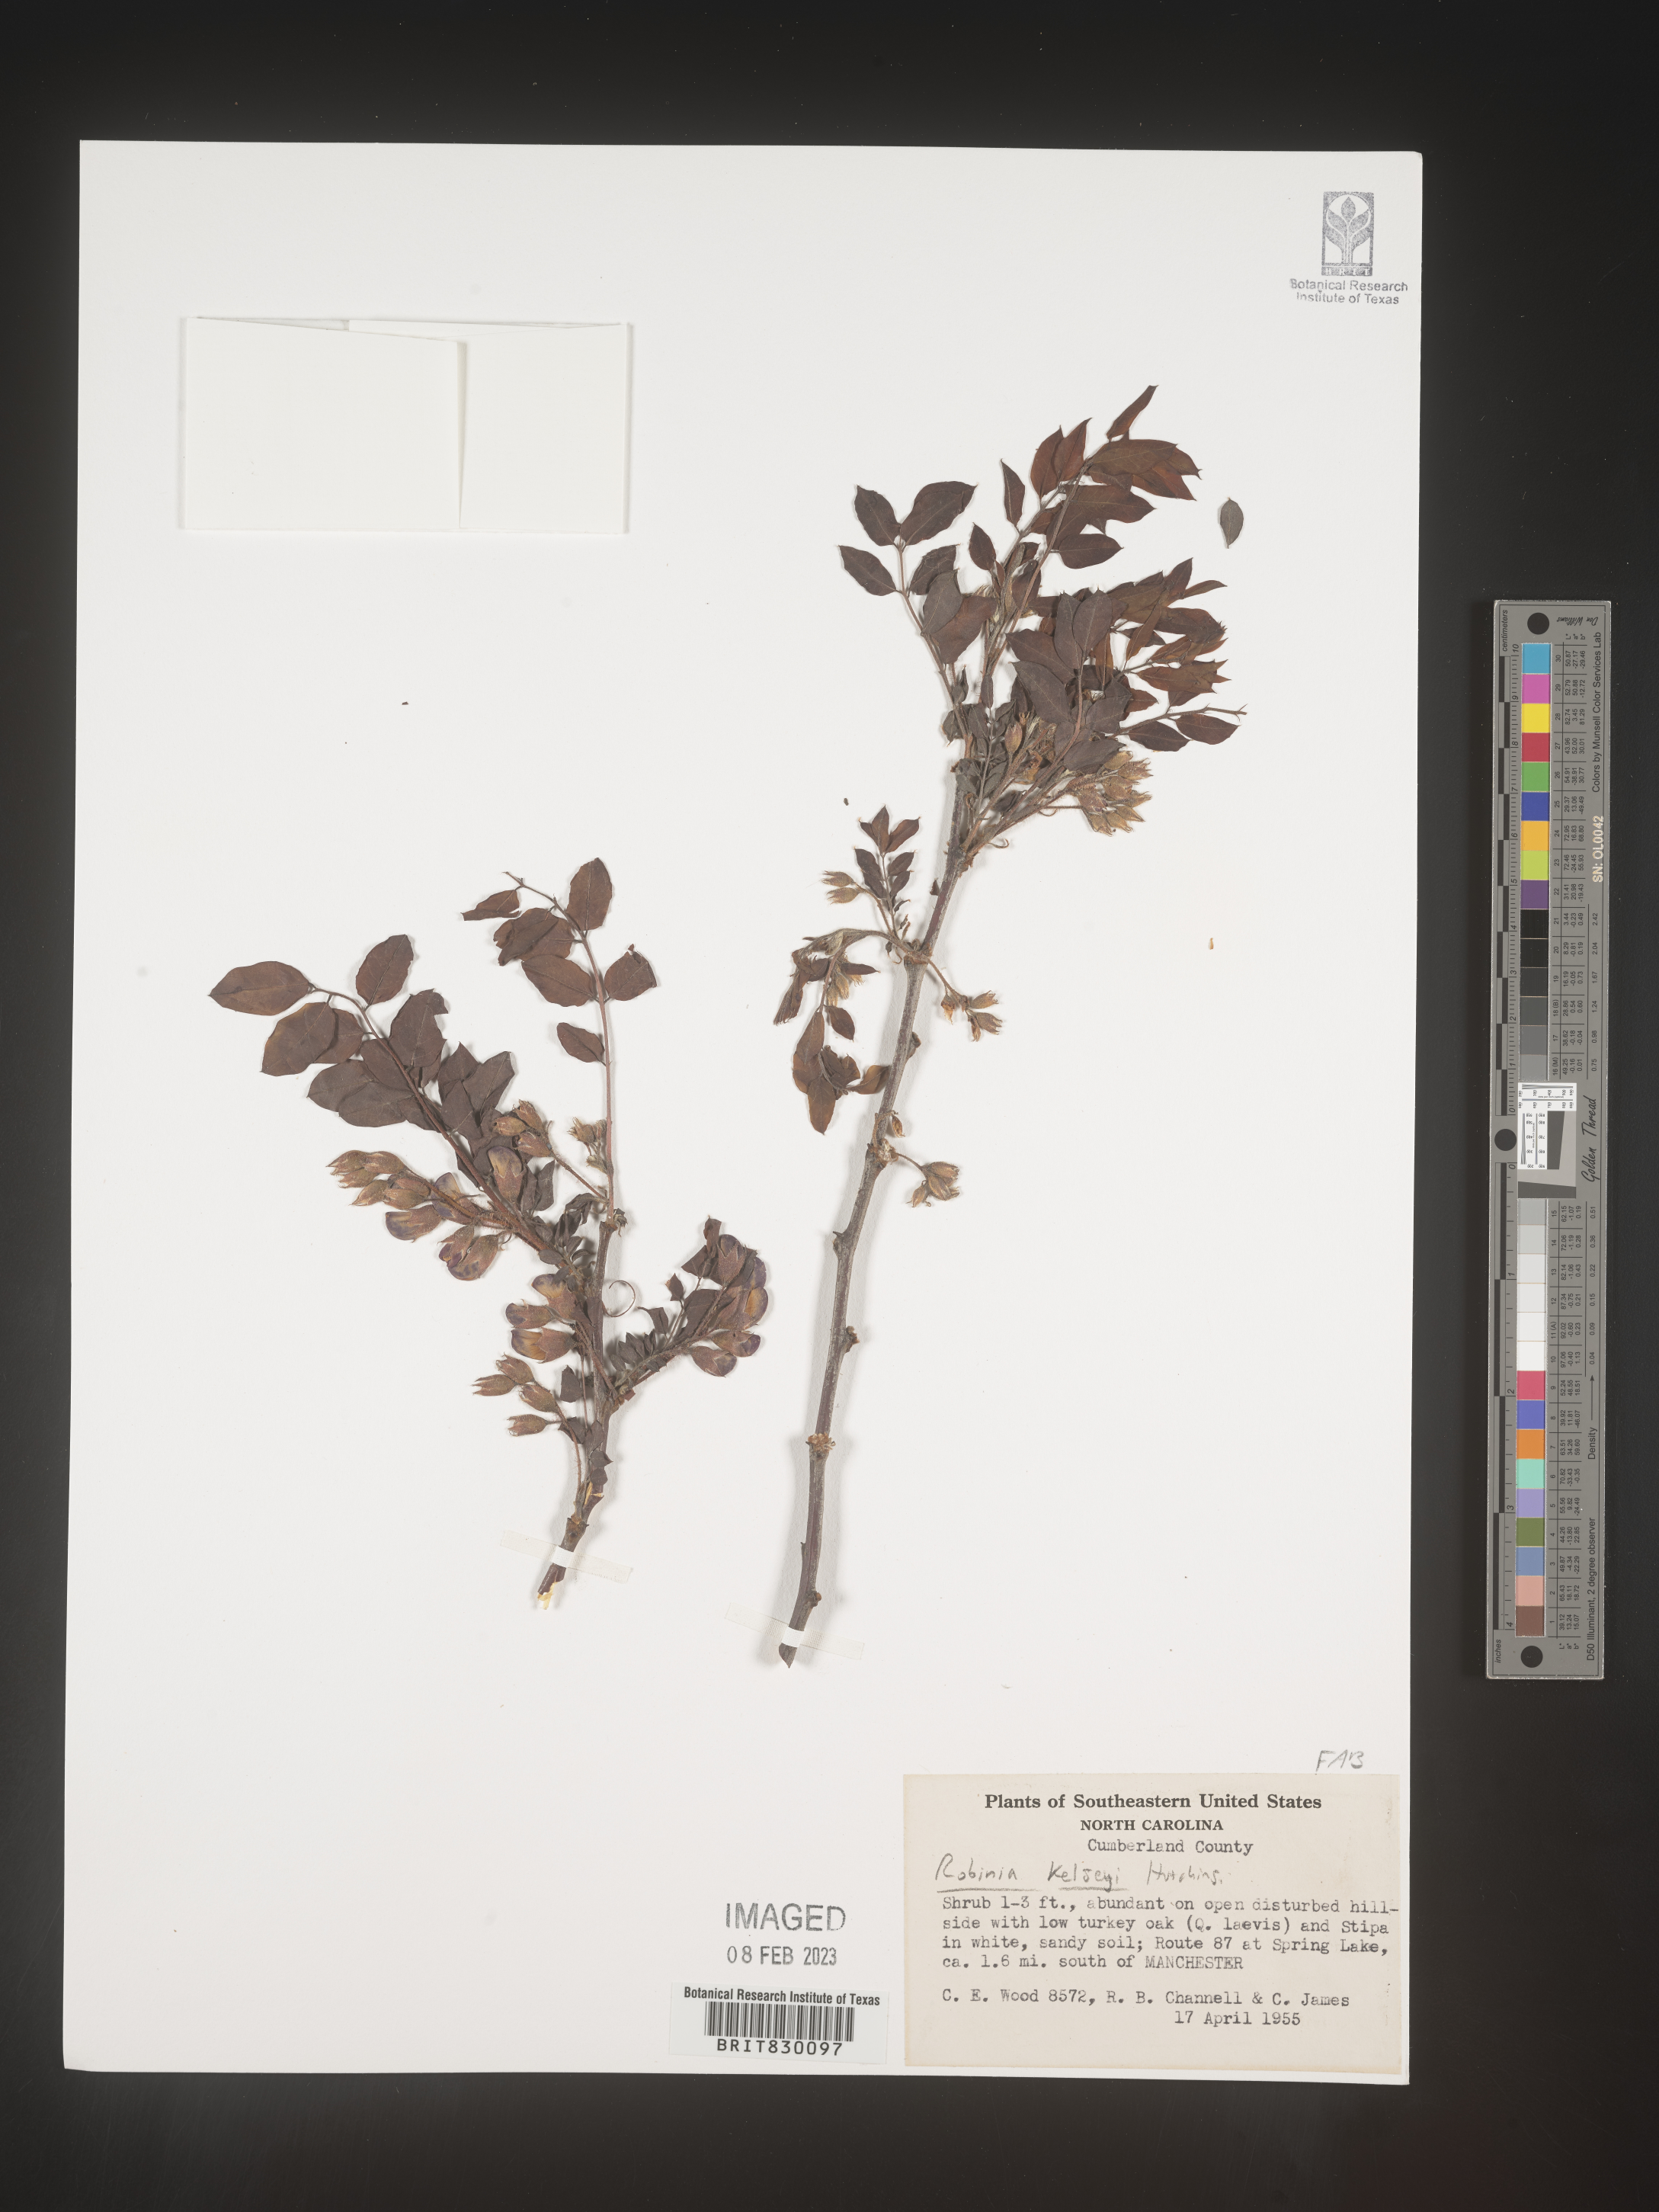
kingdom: Plantae
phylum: Tracheophyta
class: Magnoliopsida
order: Fabales
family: Fabaceae
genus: Robinia
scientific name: Robinia
